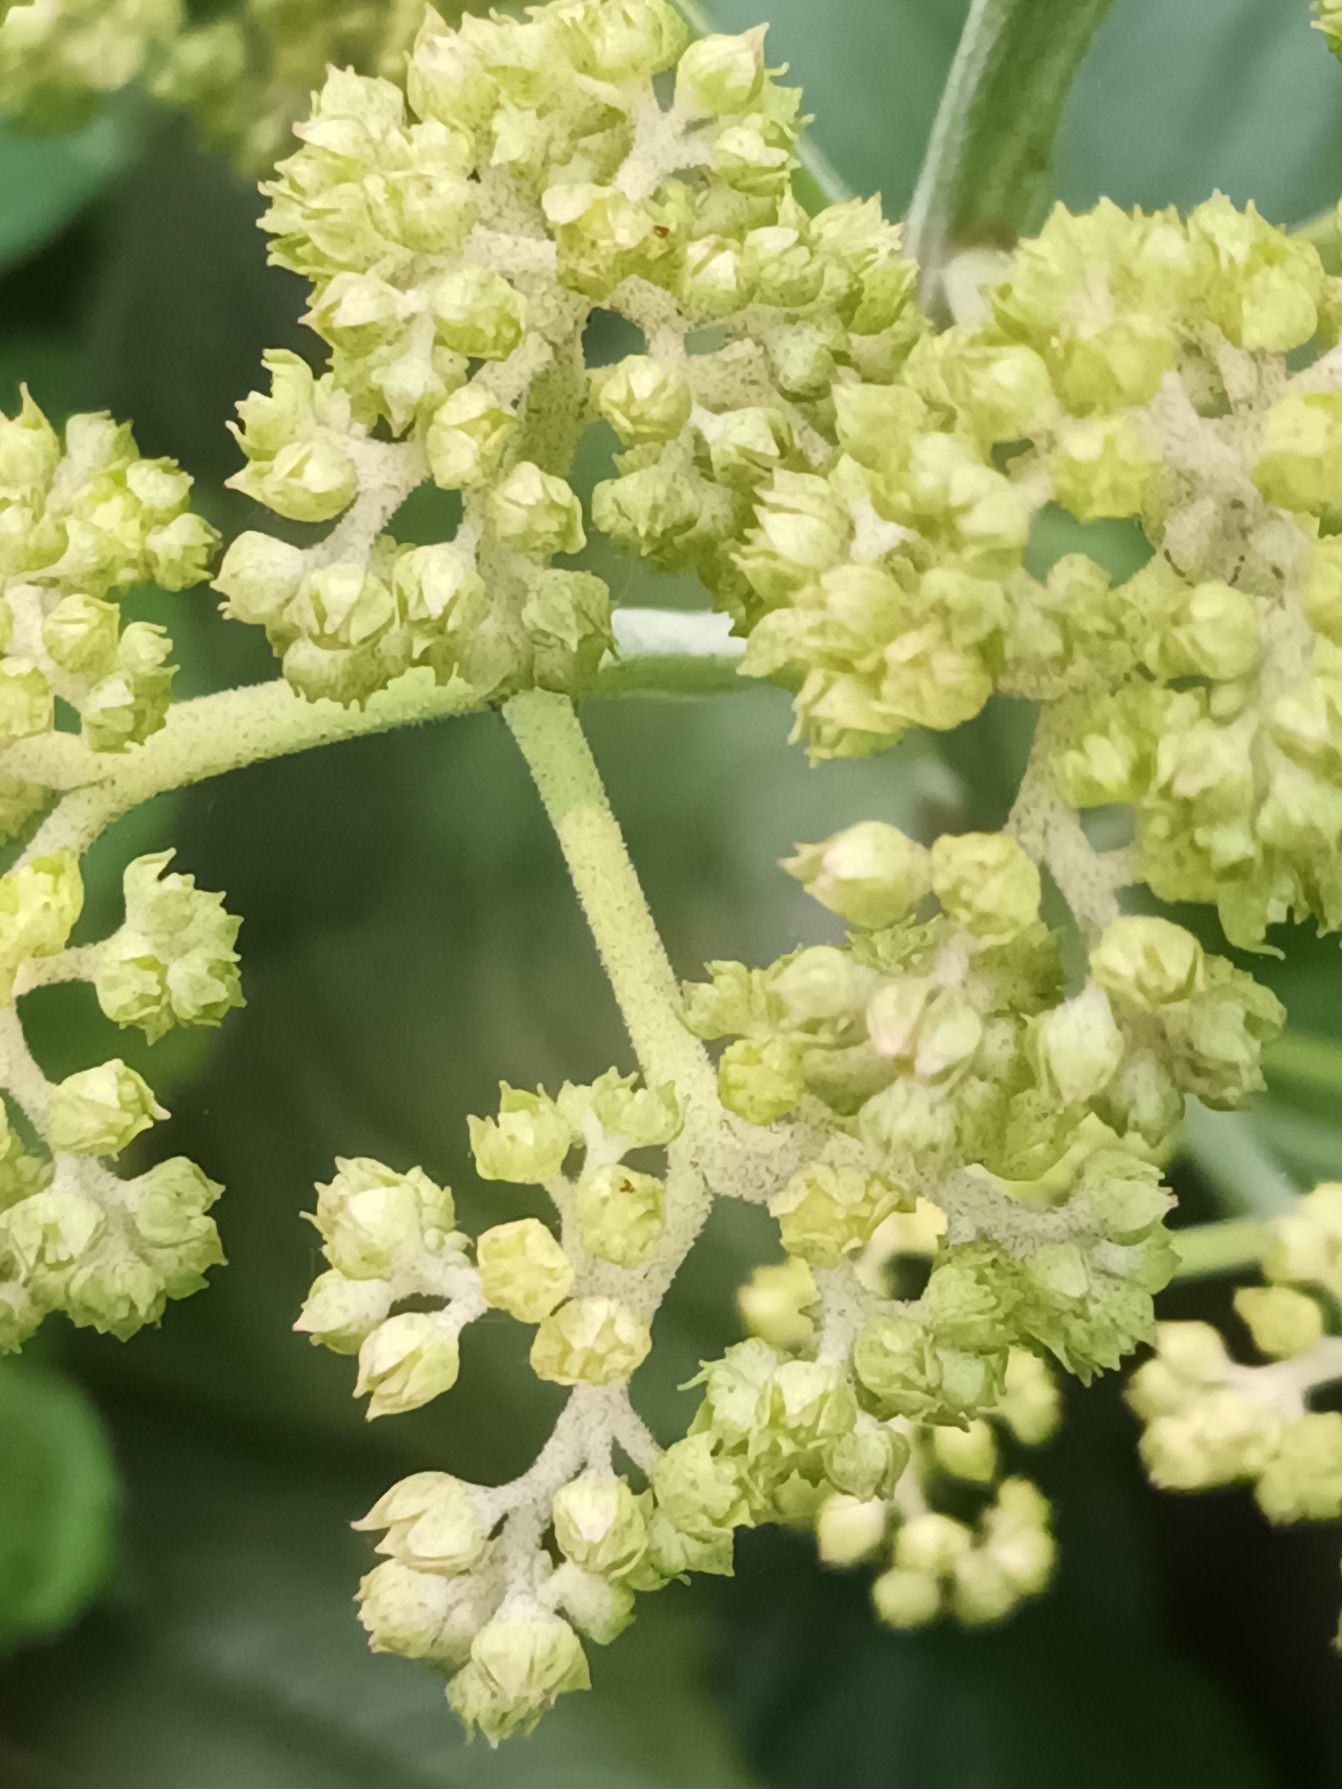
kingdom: Plantae
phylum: Tracheophyta
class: Magnoliopsida
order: Saxifragales
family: Saxifragaceae
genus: Rodgersia
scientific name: Rodgersia podophylla
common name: Stilket bronzeblad
